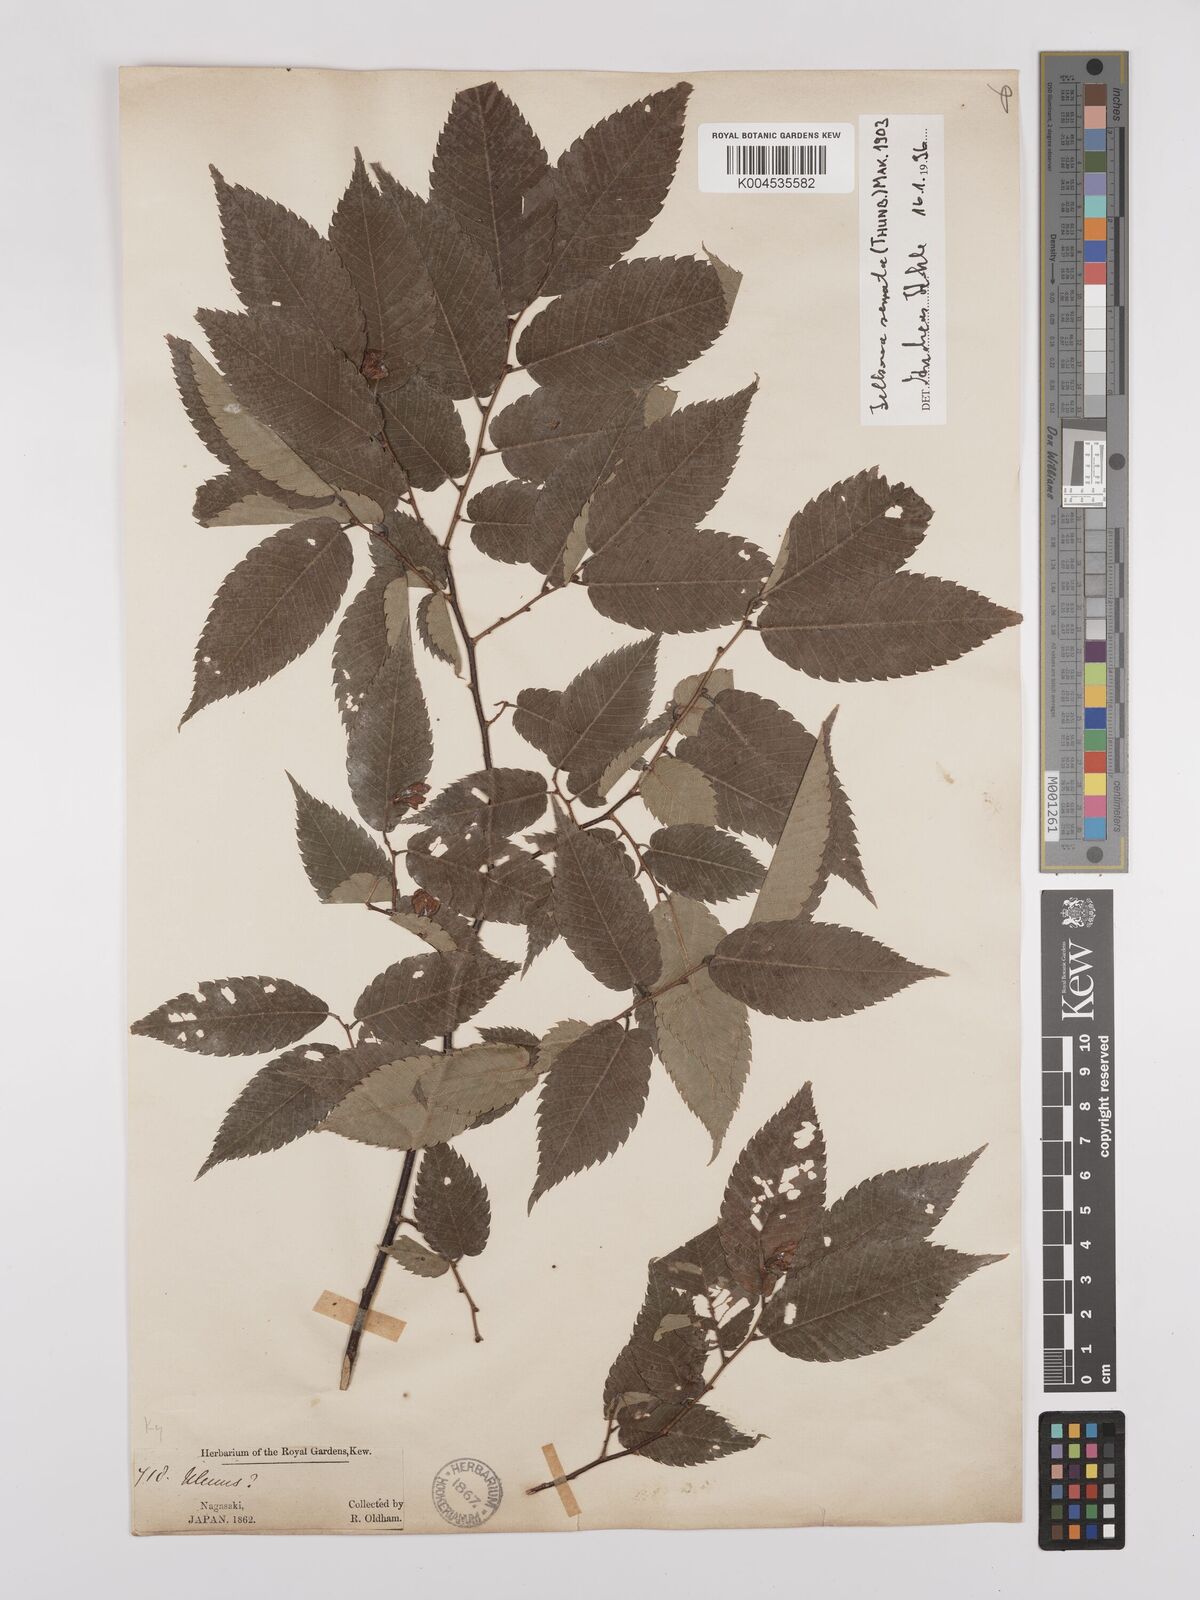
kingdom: Plantae
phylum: Tracheophyta
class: Magnoliopsida
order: Rosales
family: Ulmaceae
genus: Zelkova
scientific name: Zelkova serrata
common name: Japanese zelkova
